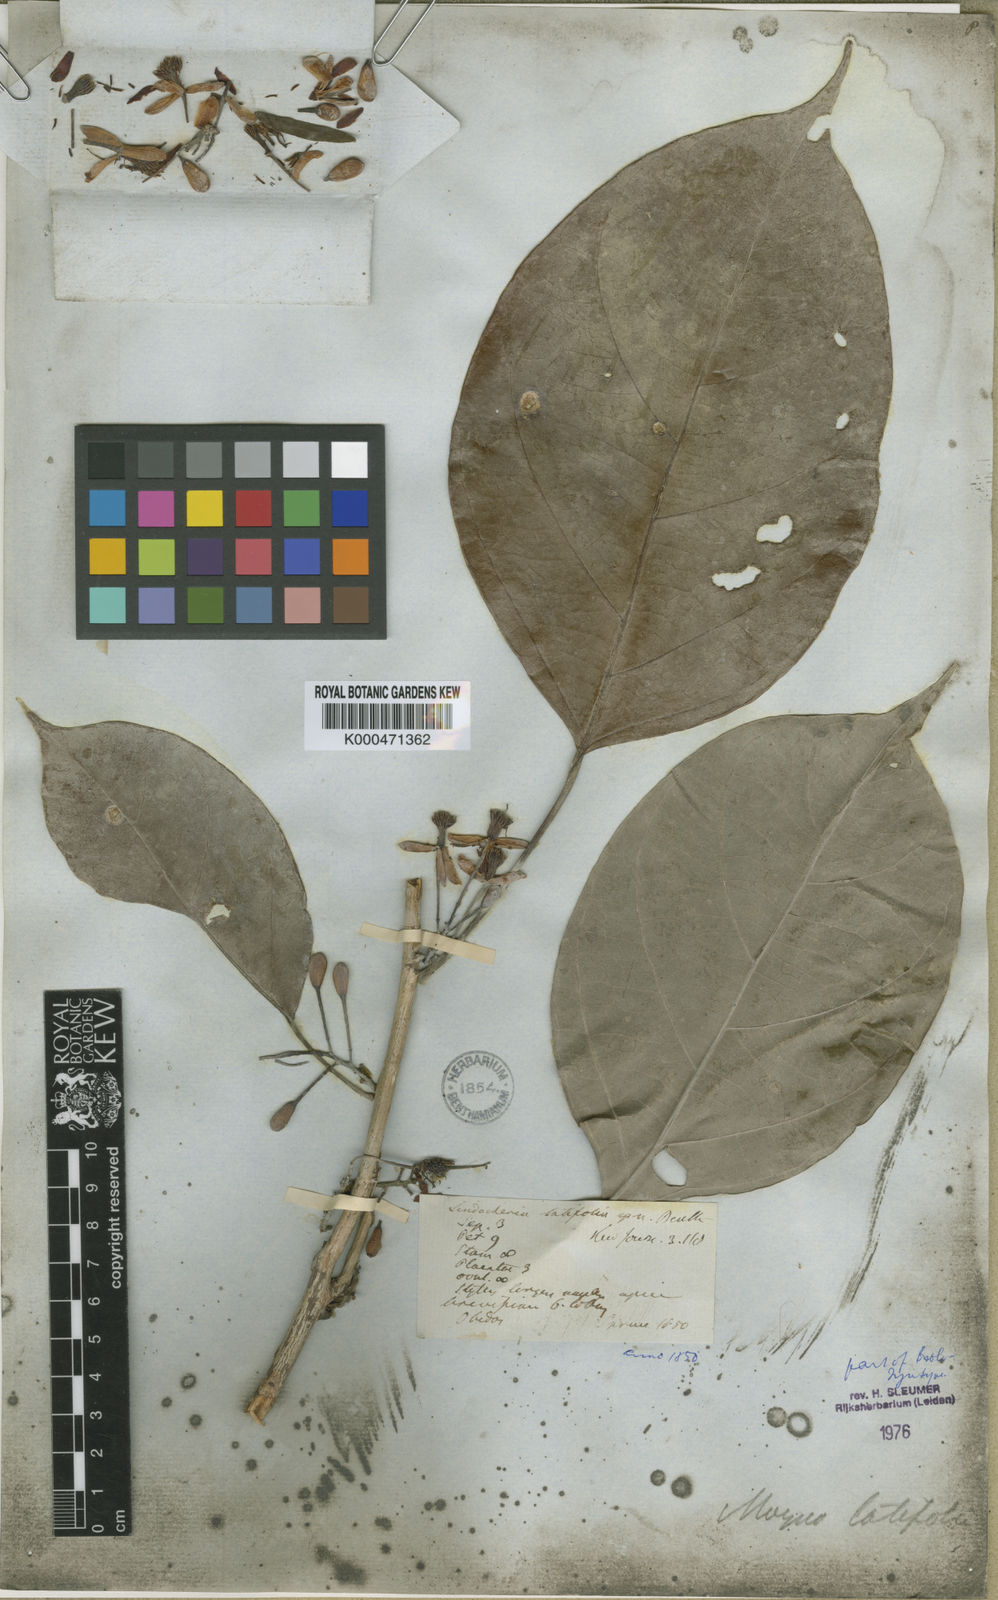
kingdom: Plantae
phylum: Tracheophyta
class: Magnoliopsida
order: Malpighiales
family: Achariaceae
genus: Lindackeria
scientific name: Lindackeria latifolia
